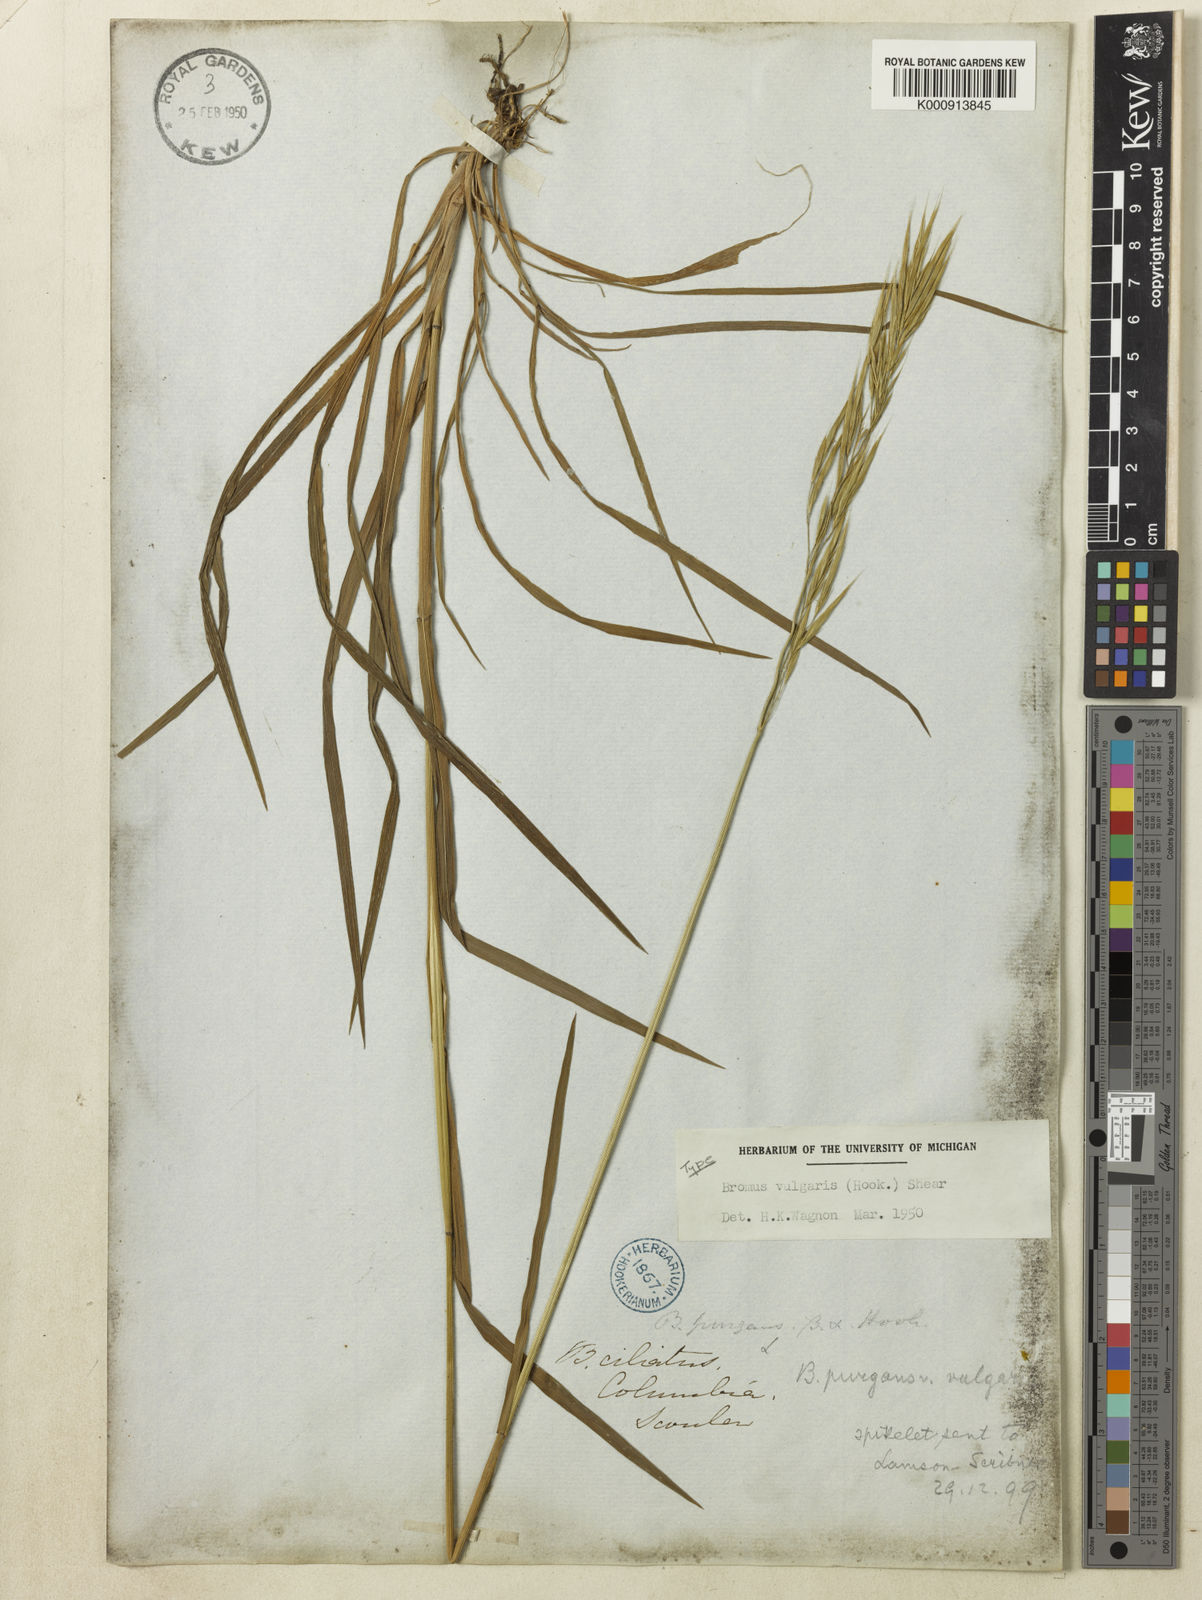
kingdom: Plantae
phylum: Tracheophyta
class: Liliopsida
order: Poales
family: Poaceae
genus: Bromus
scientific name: Bromus vulgaris
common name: Columbia brome
